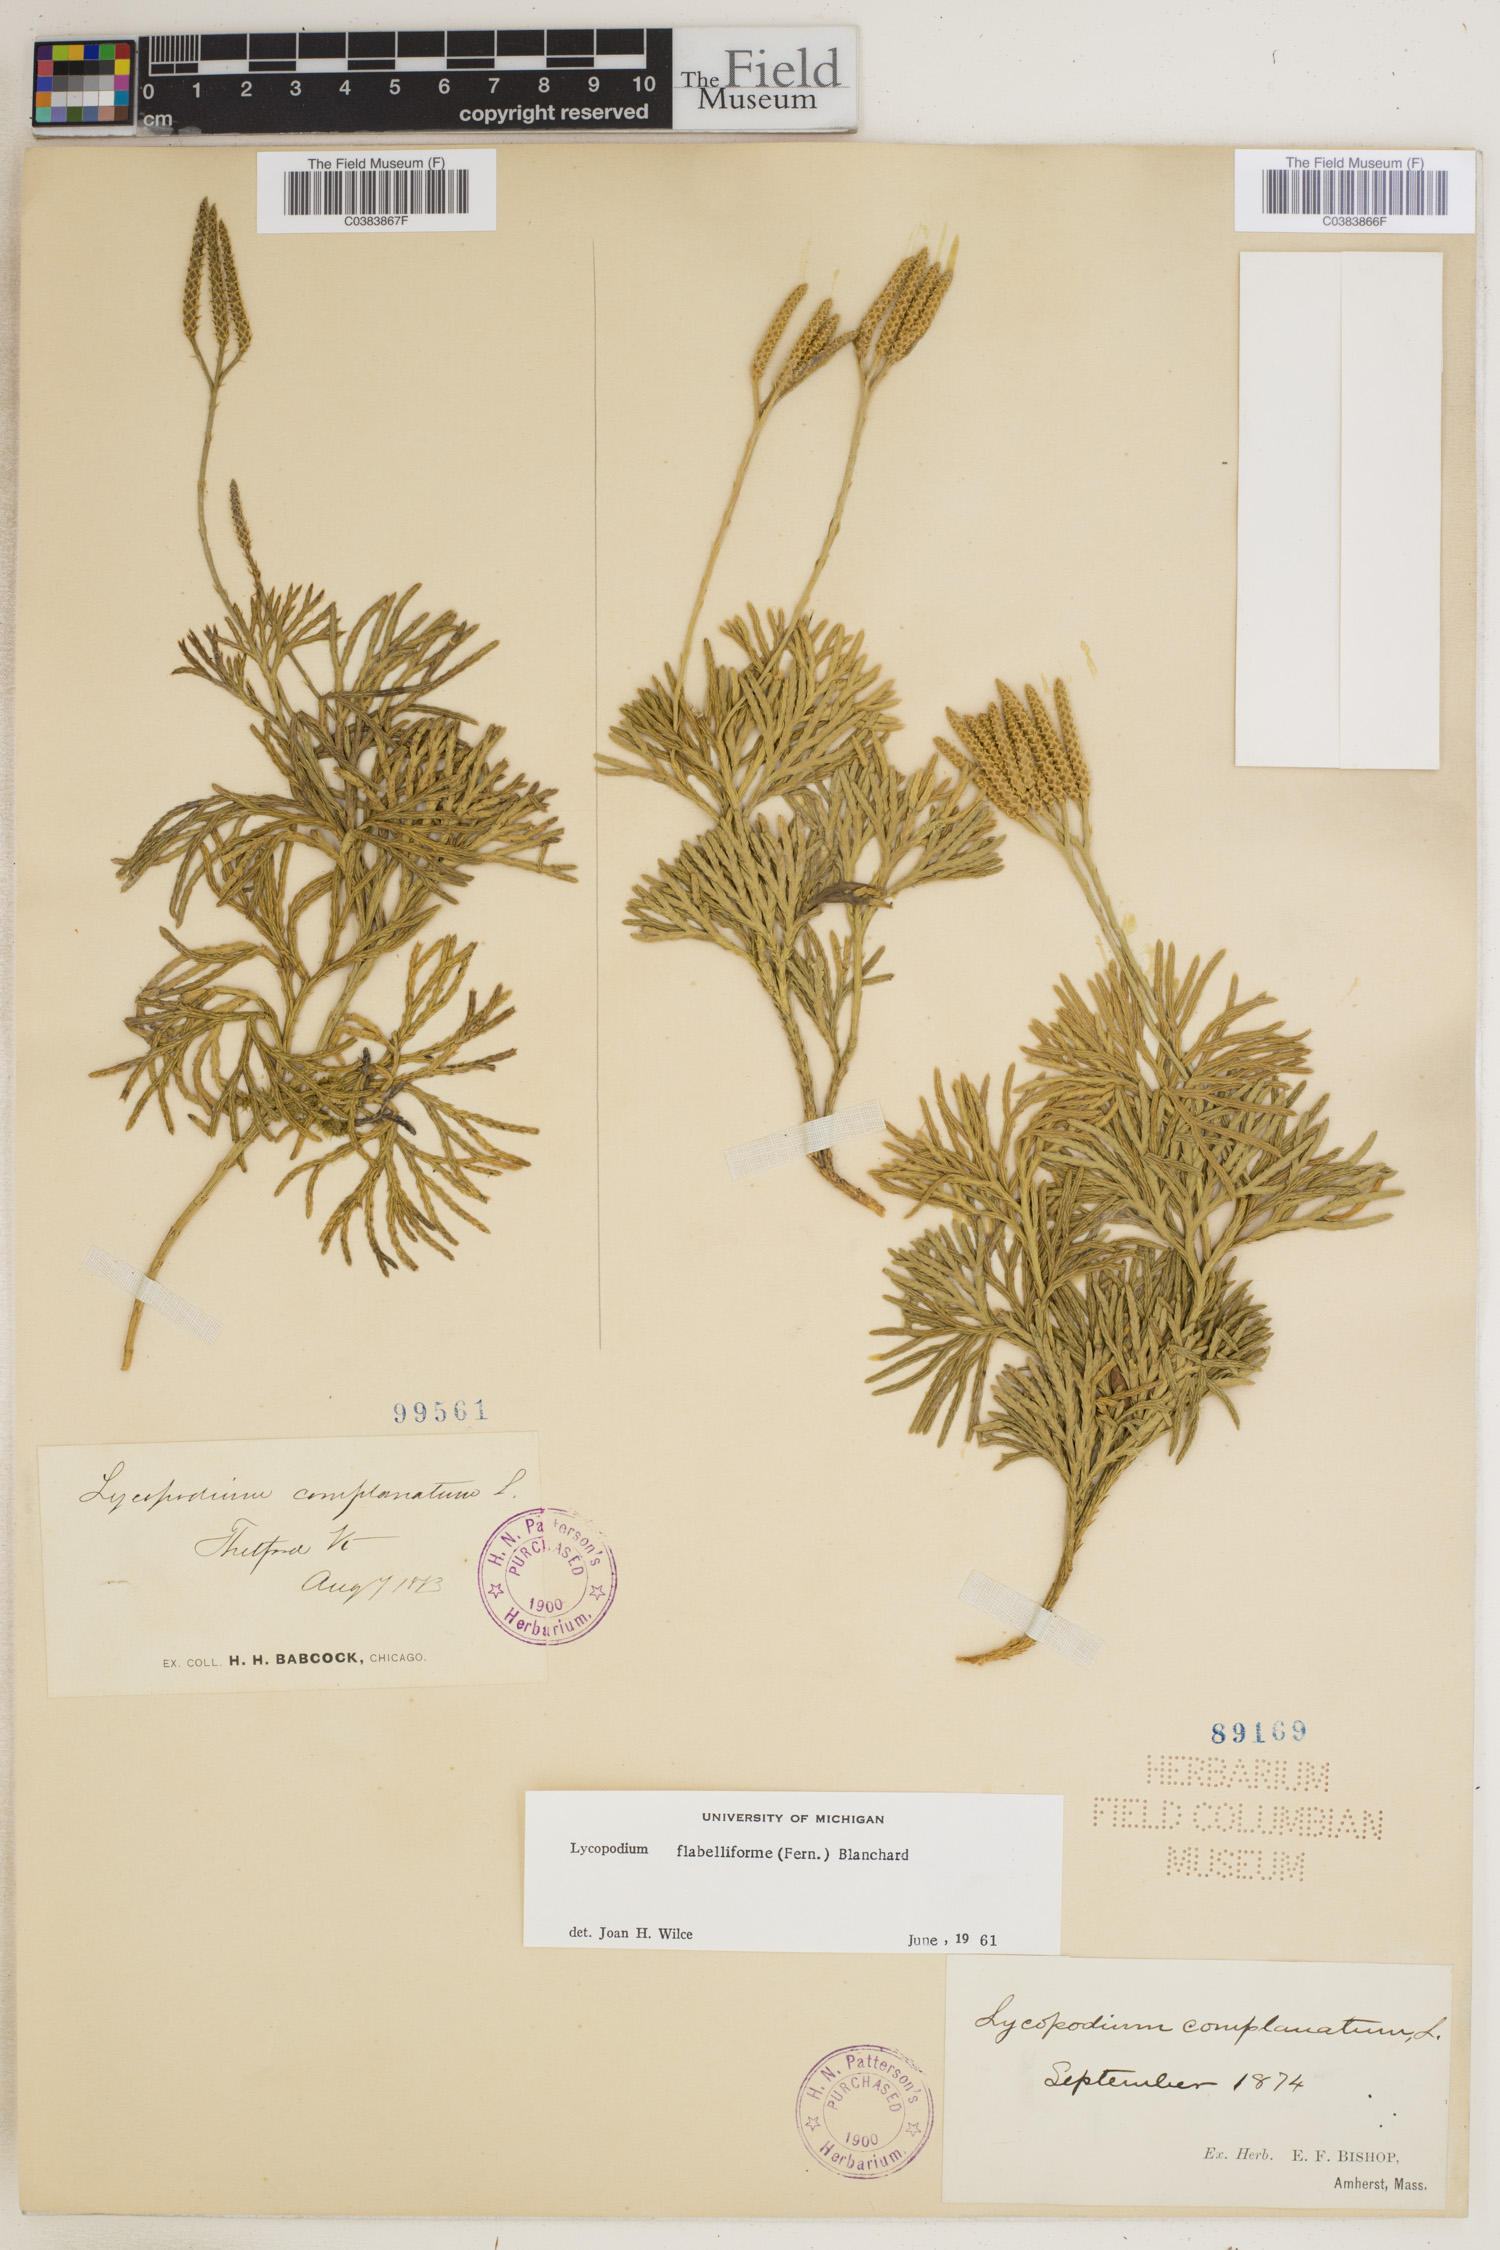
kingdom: Plantae
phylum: Tracheophyta
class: Lycopodiopsida
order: Lycopodiales
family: Lycopodiaceae
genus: Diphasiastrum
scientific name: Diphasiastrum digitatum
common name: Southern running-pine
